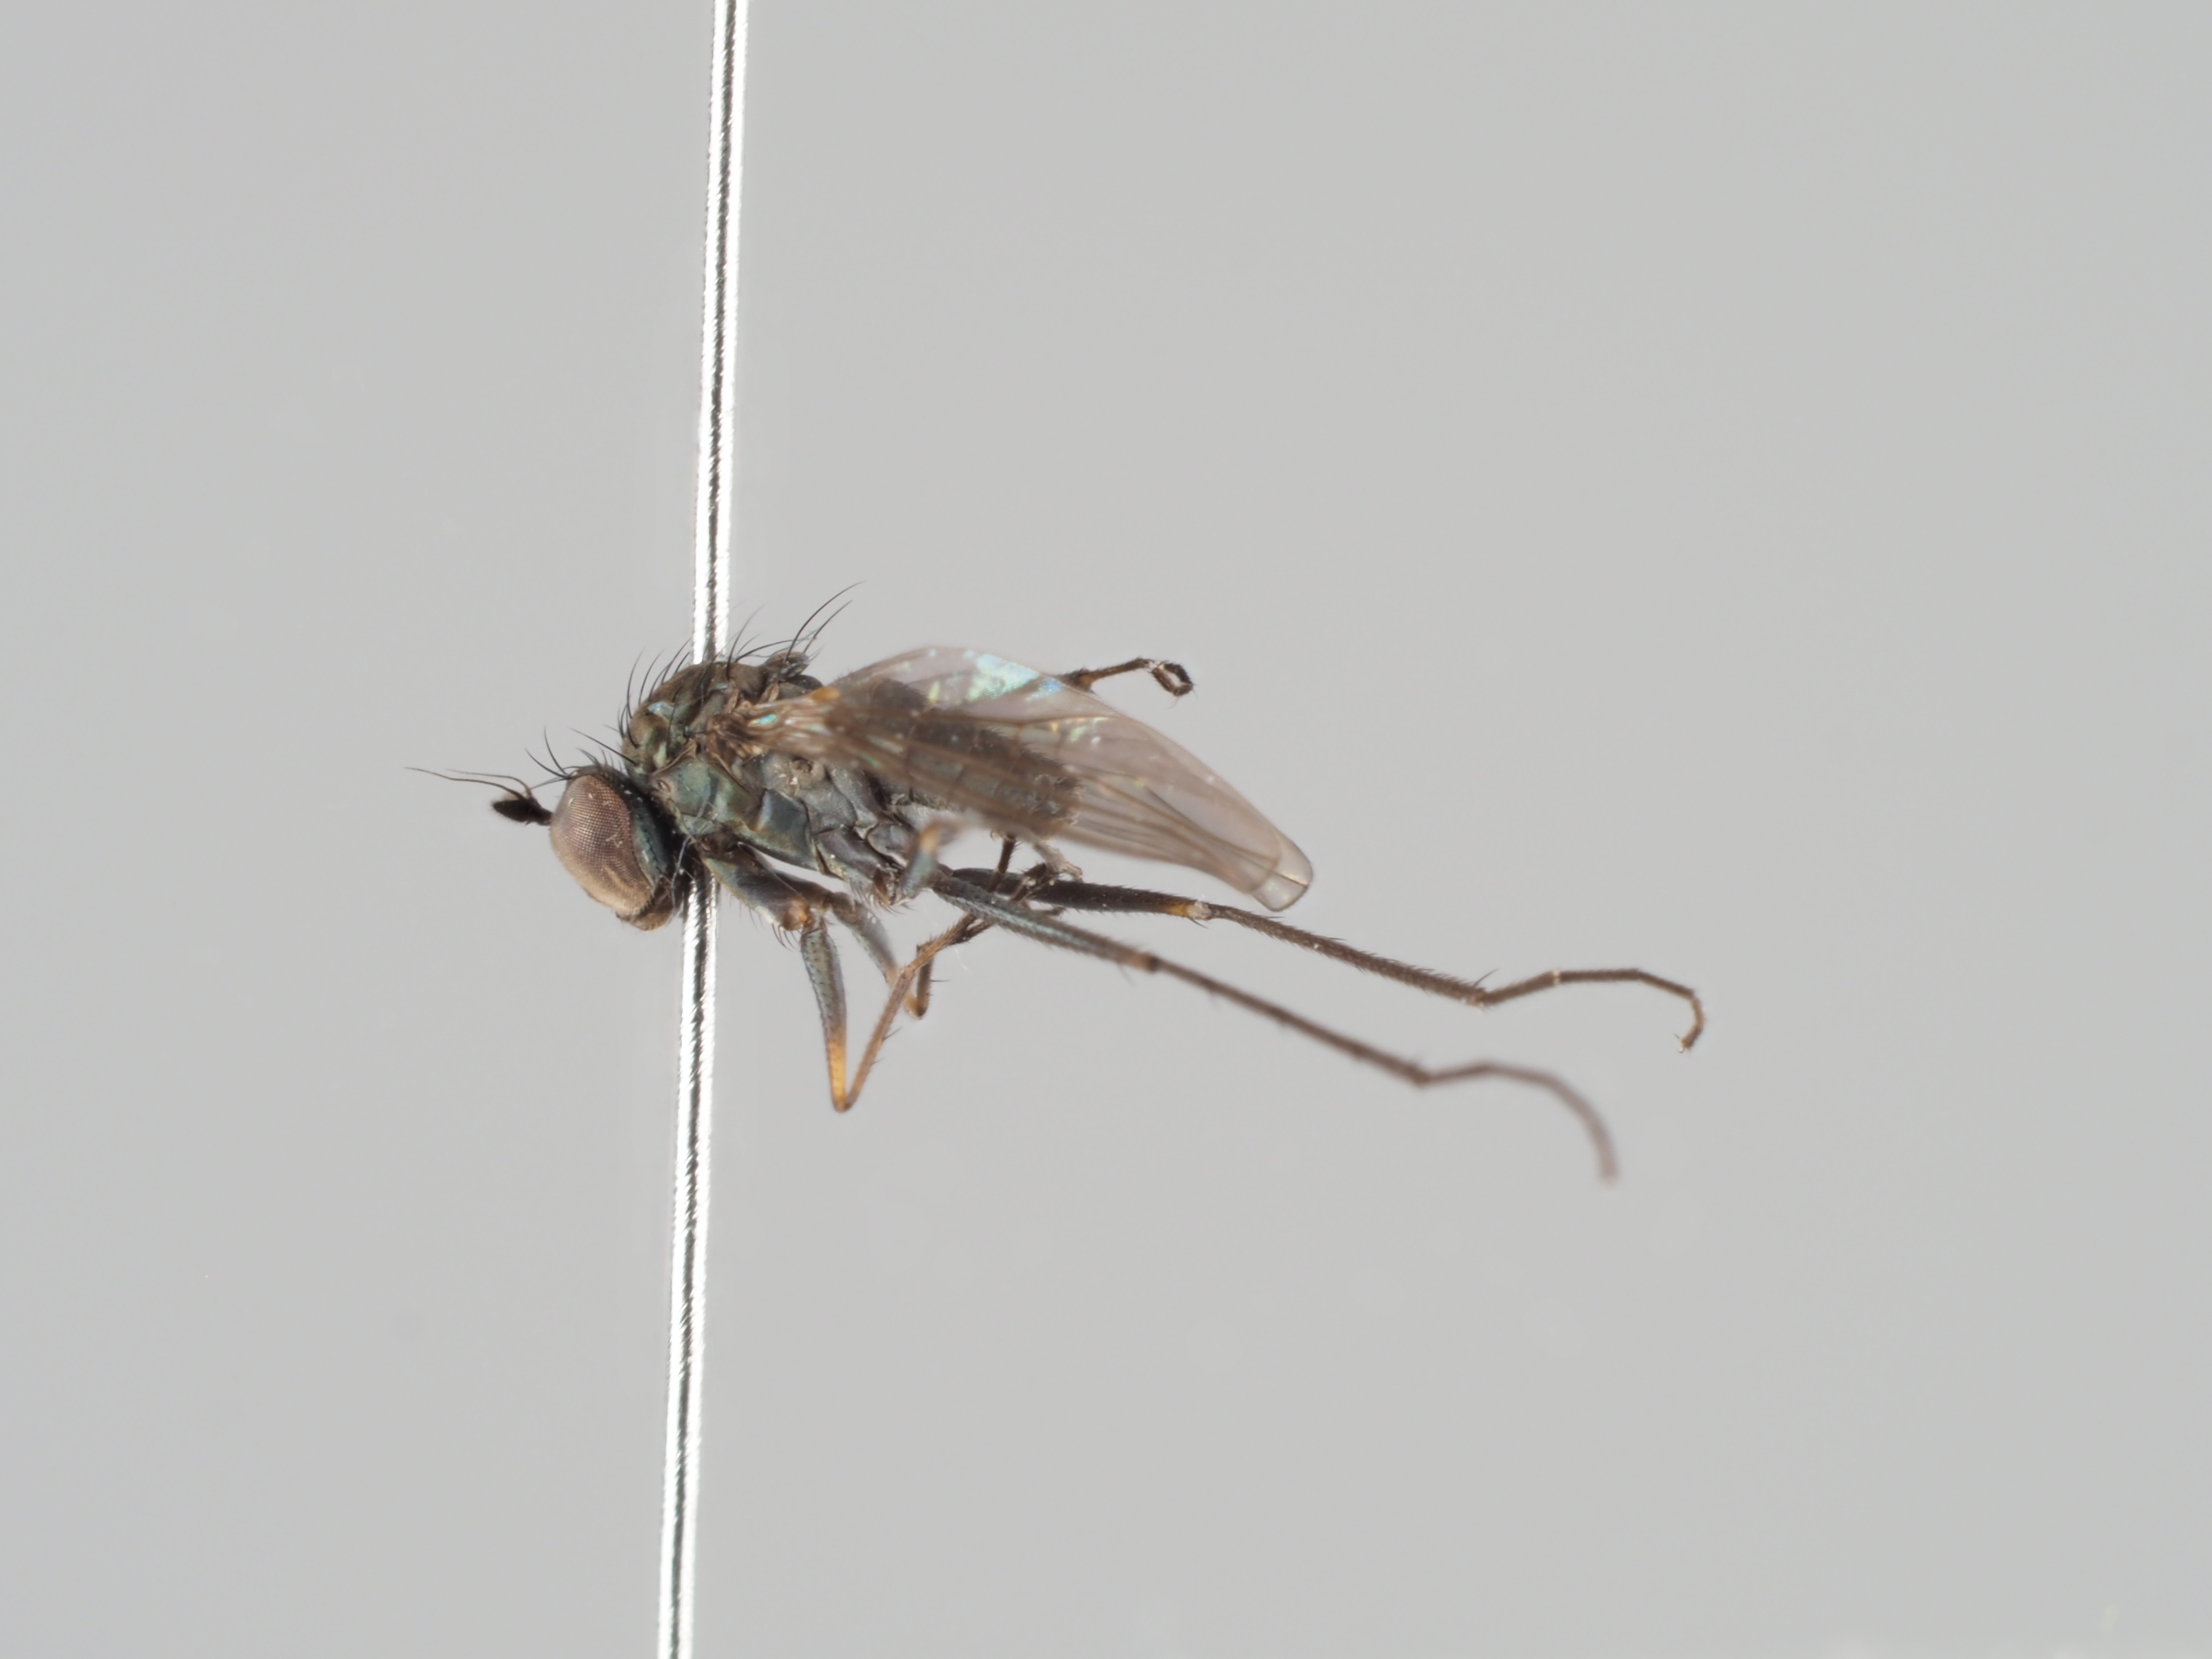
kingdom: Animalia
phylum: Arthropoda
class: Insecta
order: Diptera
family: Dolichopodidae
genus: Campsicnemus
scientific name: Campsicnemus pusillus
